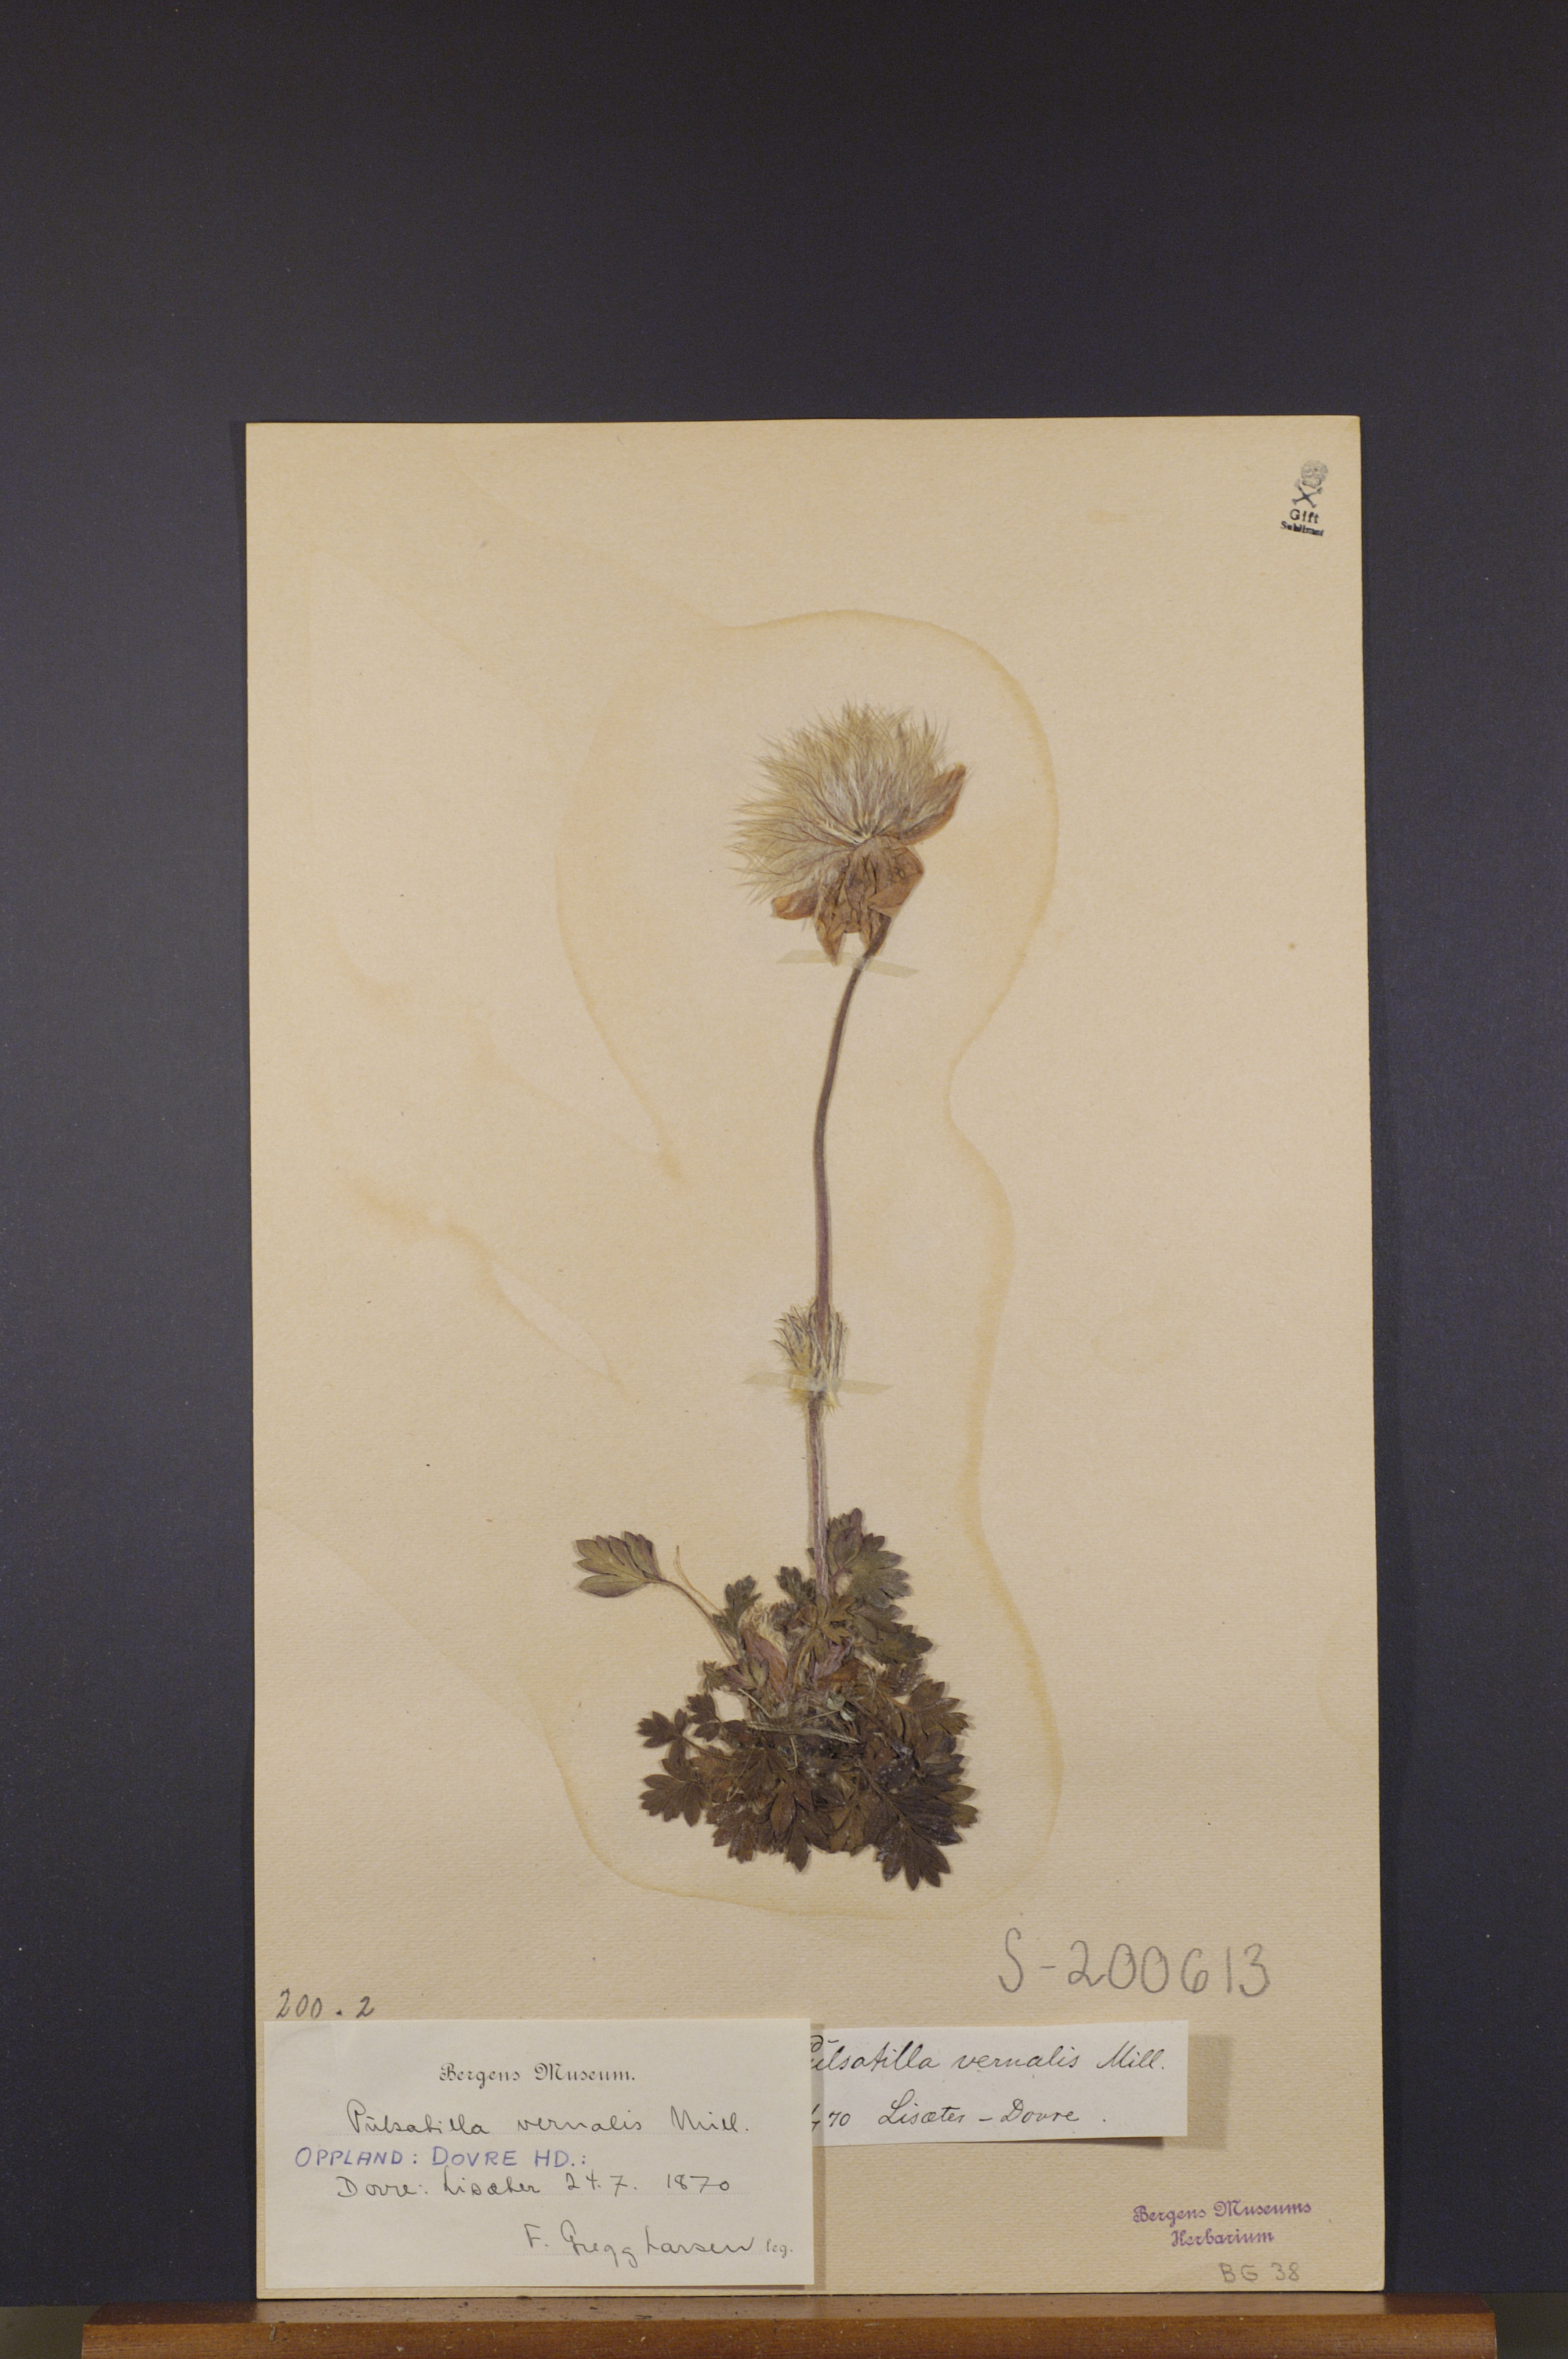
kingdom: Plantae
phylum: Tracheophyta
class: Magnoliopsida
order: Ranunculales
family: Ranunculaceae
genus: Pulsatilla
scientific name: Pulsatilla vernalis
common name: Spring pasque flower
